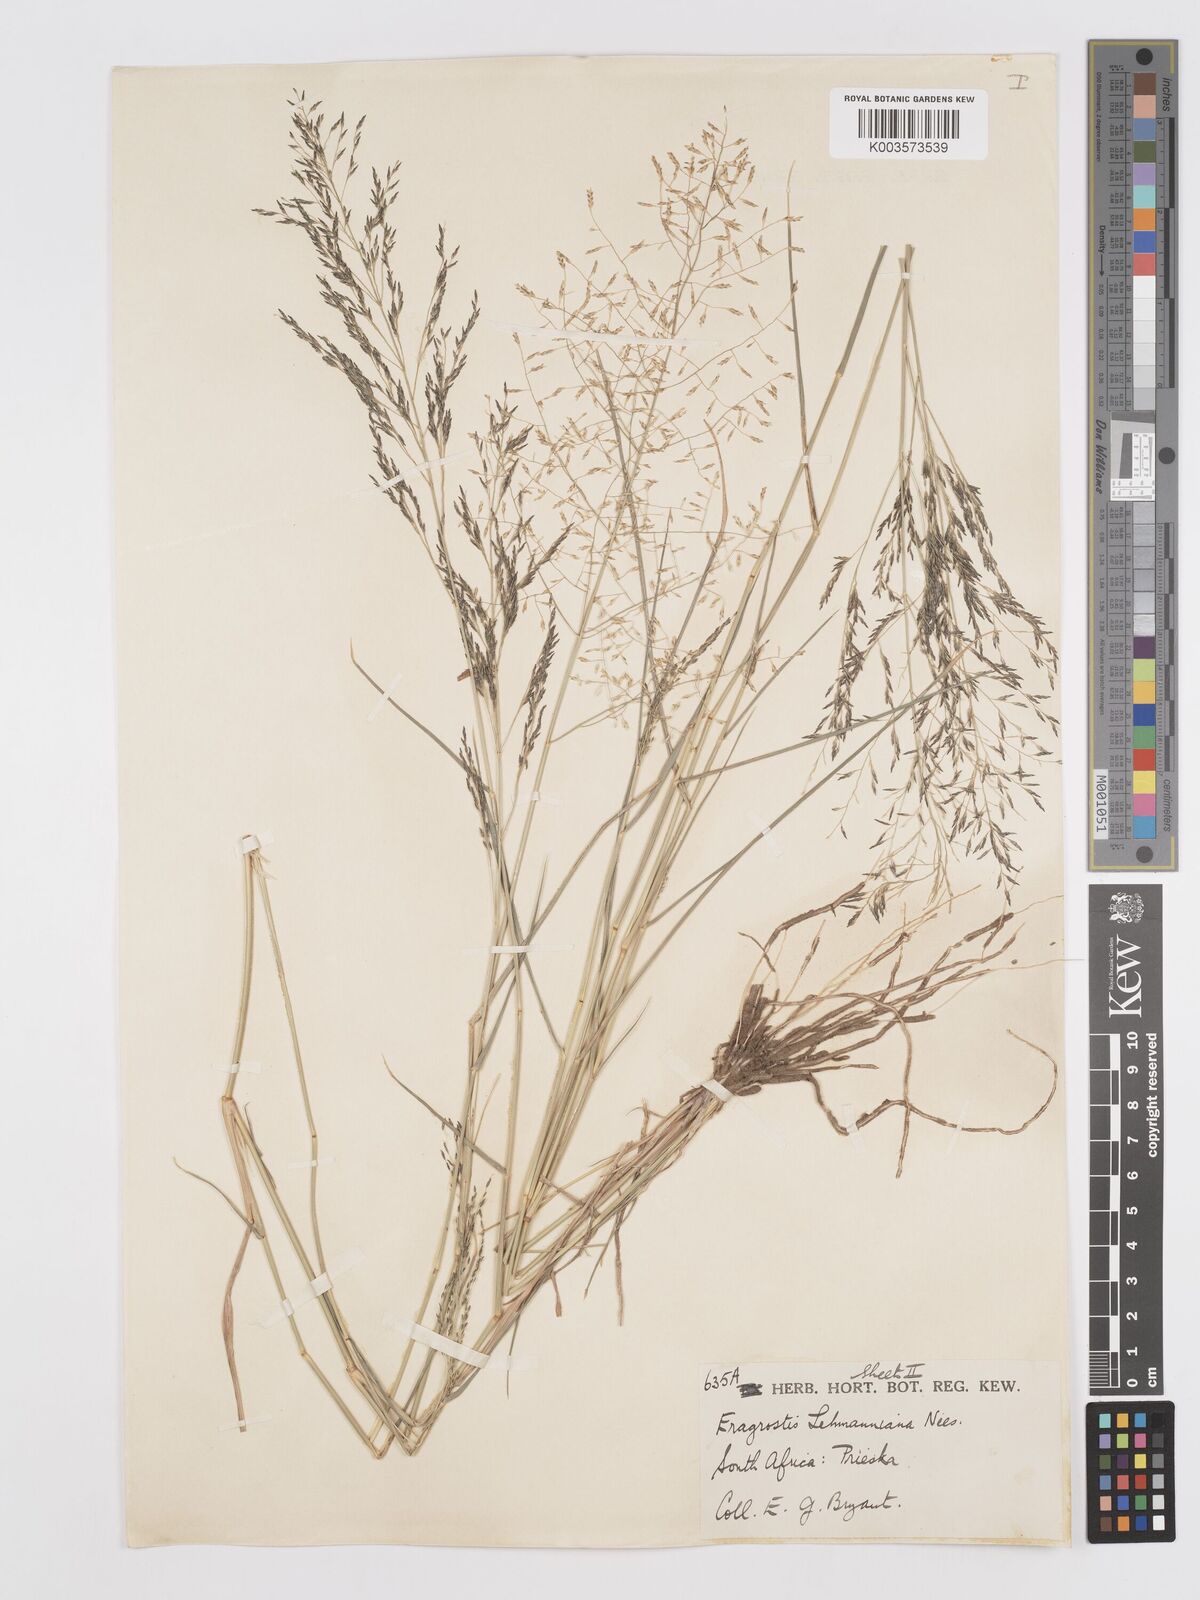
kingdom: Plantae
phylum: Tracheophyta
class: Liliopsida
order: Poales
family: Poaceae
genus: Eragrostis
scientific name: Eragrostis lehmanniana
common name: Lehmann lovegrass
